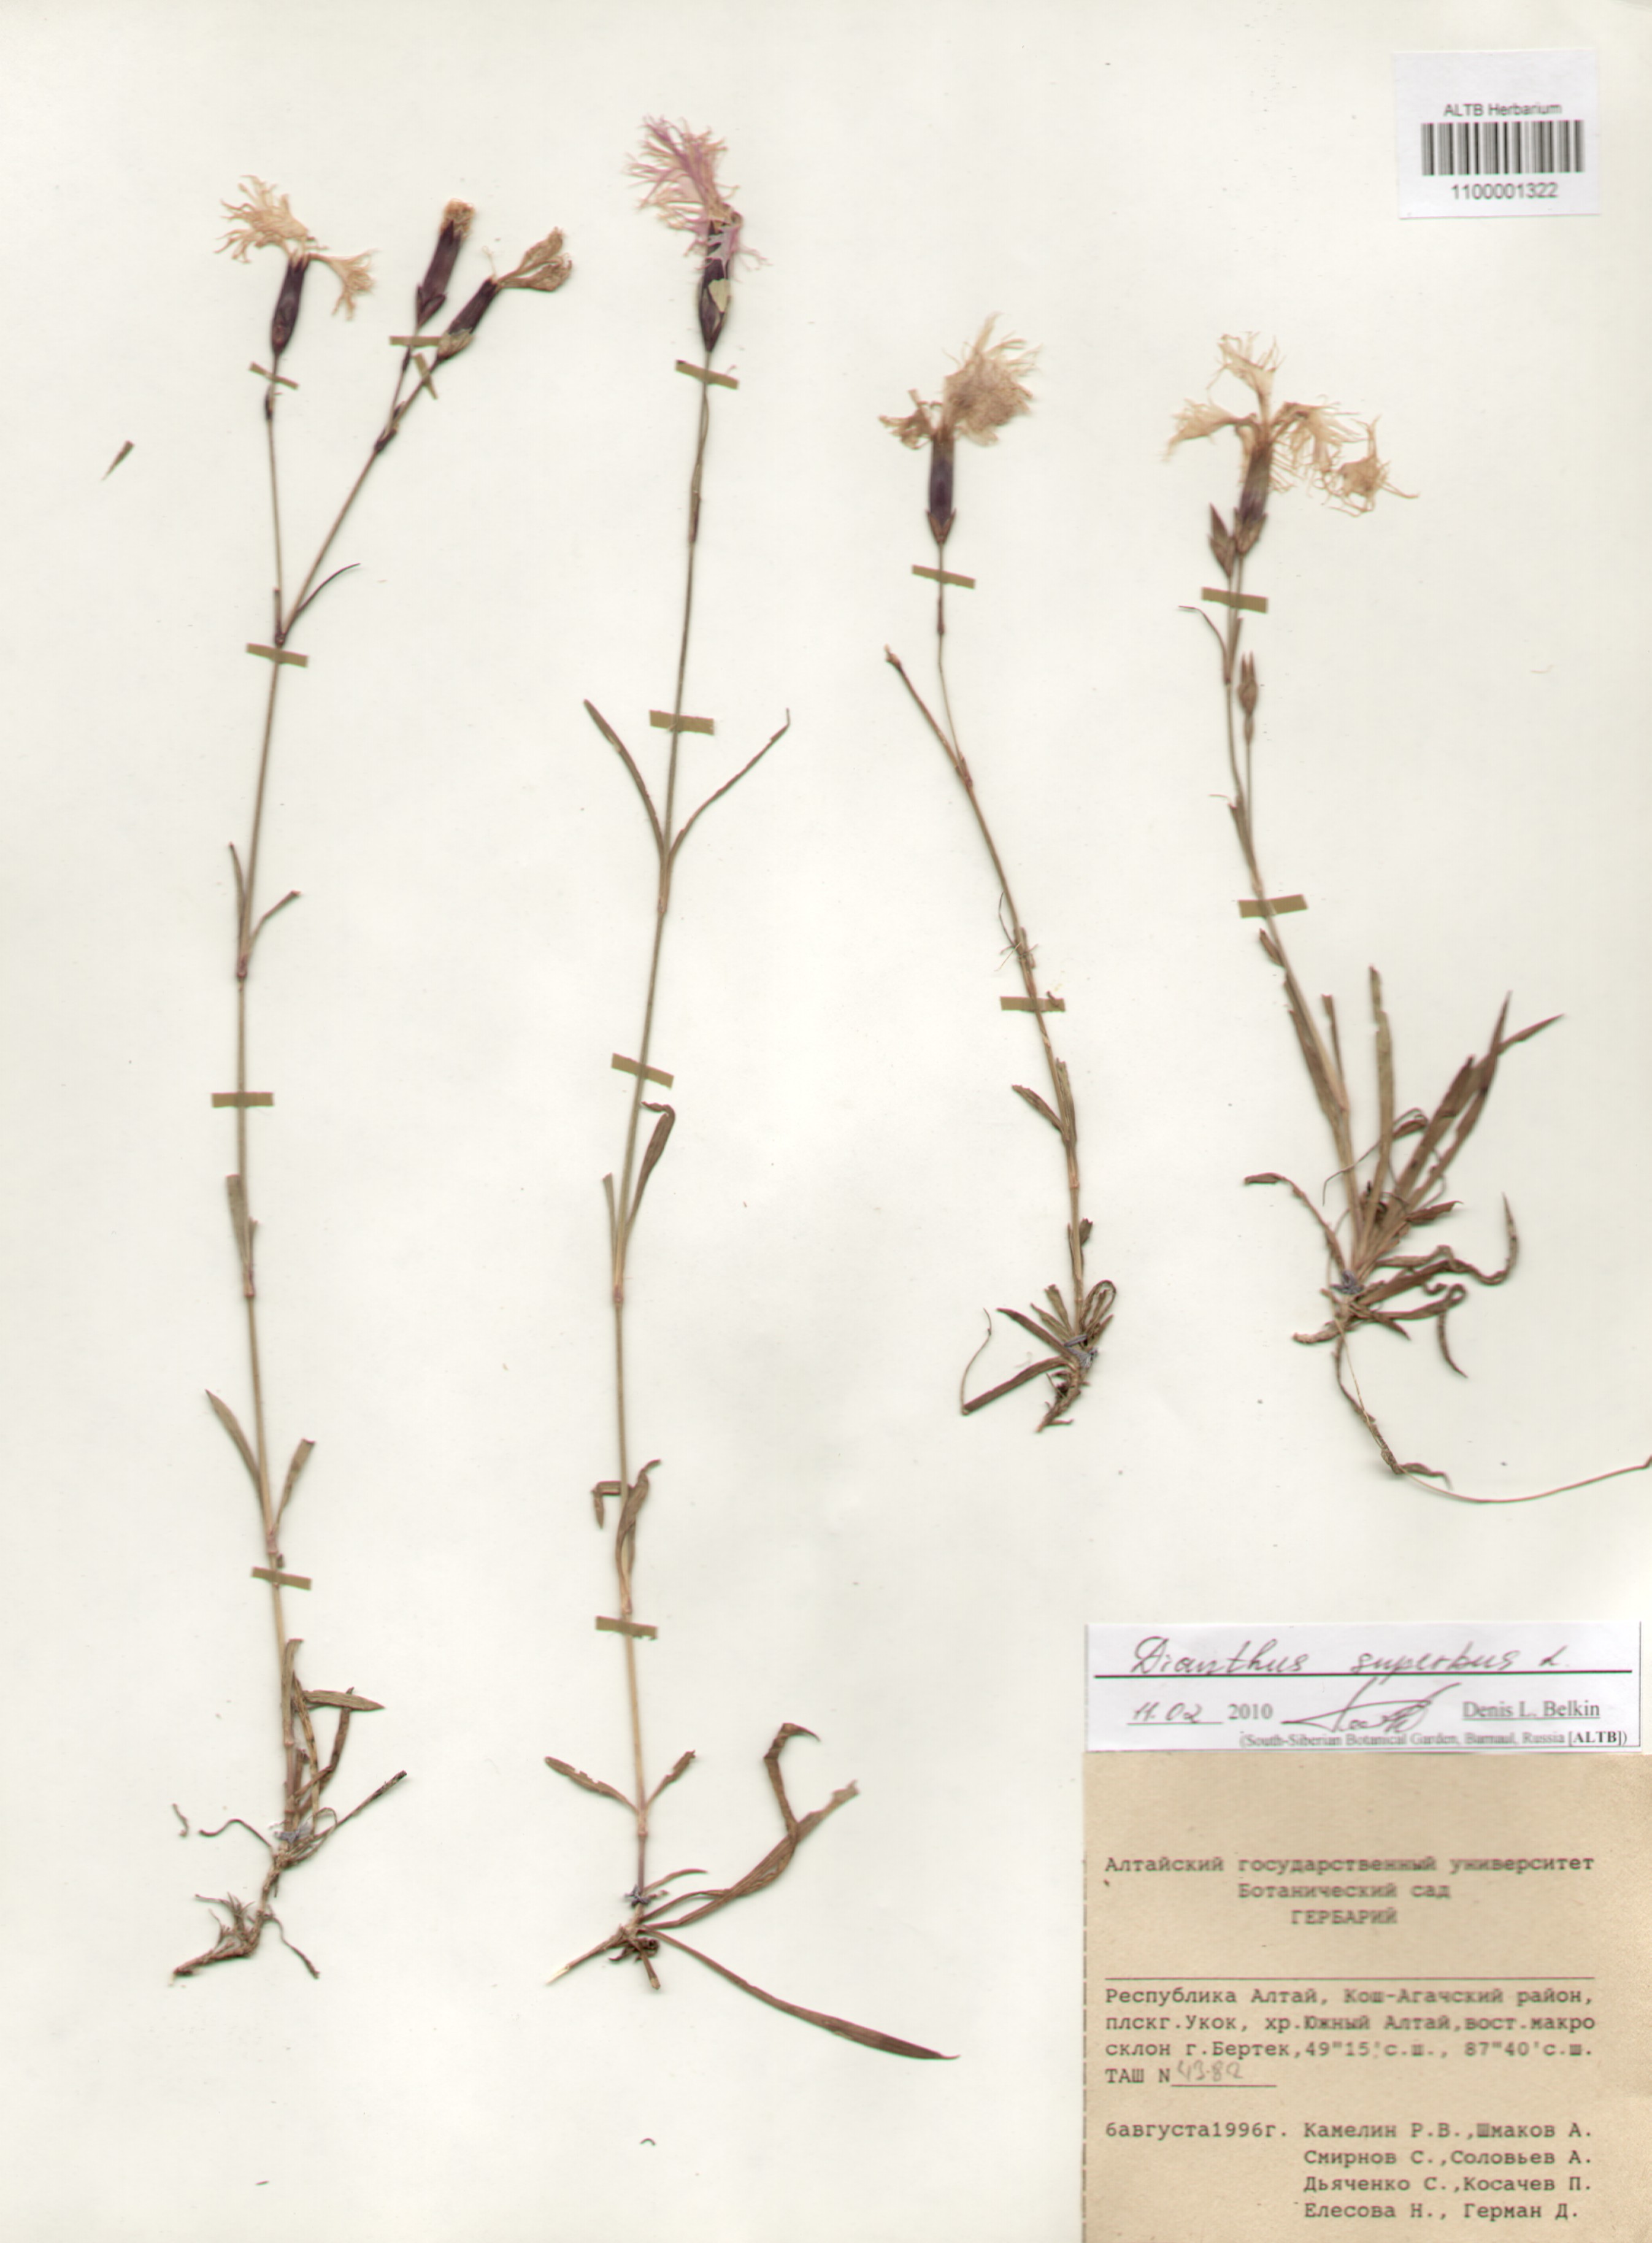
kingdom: Plantae
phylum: Tracheophyta
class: Magnoliopsida
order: Caryophyllales
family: Caryophyllaceae
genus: Dianthus
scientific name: Dianthus superbus
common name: Fringed pink
